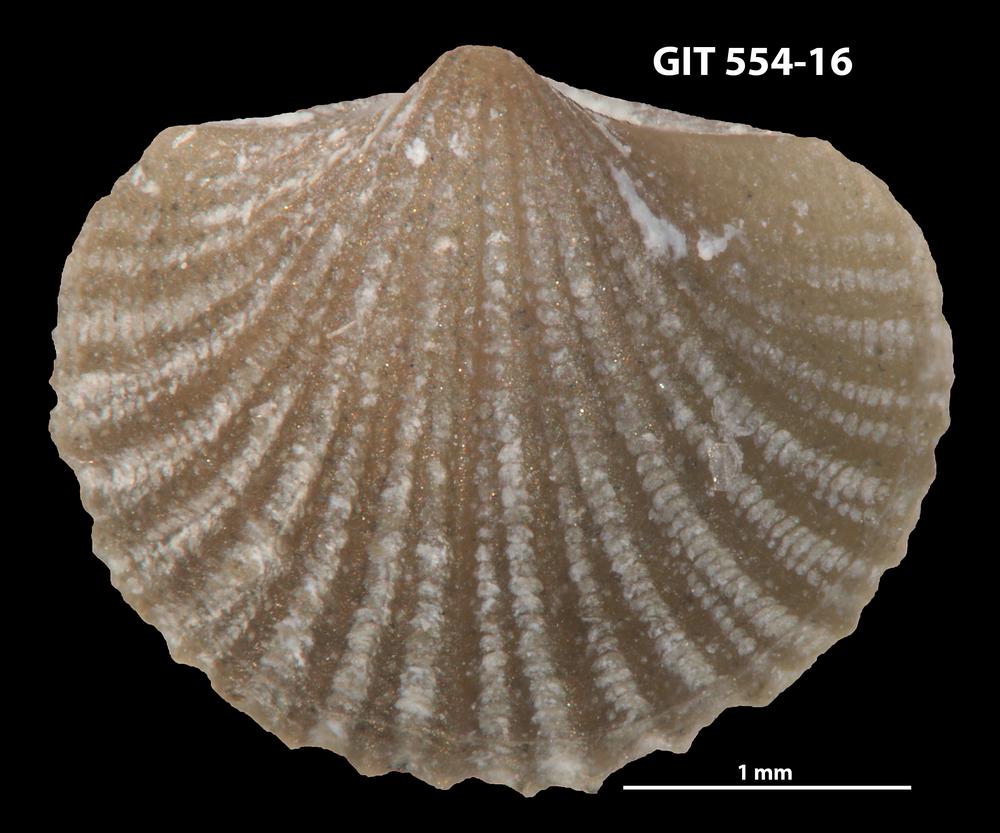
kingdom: Animalia
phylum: Brachiopoda
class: Rhynchonellata
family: Dalmanellidae
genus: Onniella
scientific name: Onniella trigona
